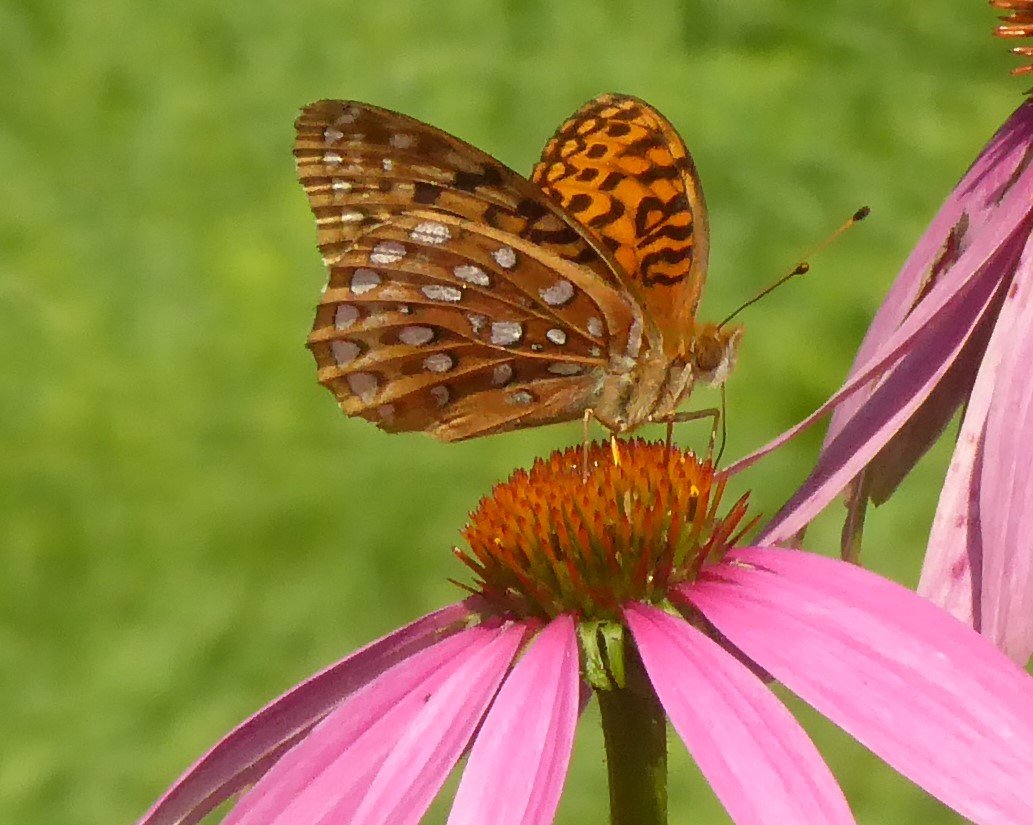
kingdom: Animalia
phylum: Arthropoda
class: Insecta
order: Lepidoptera
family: Nymphalidae
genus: Speyeria
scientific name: Speyeria cybele
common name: Great Spangled Fritillary
